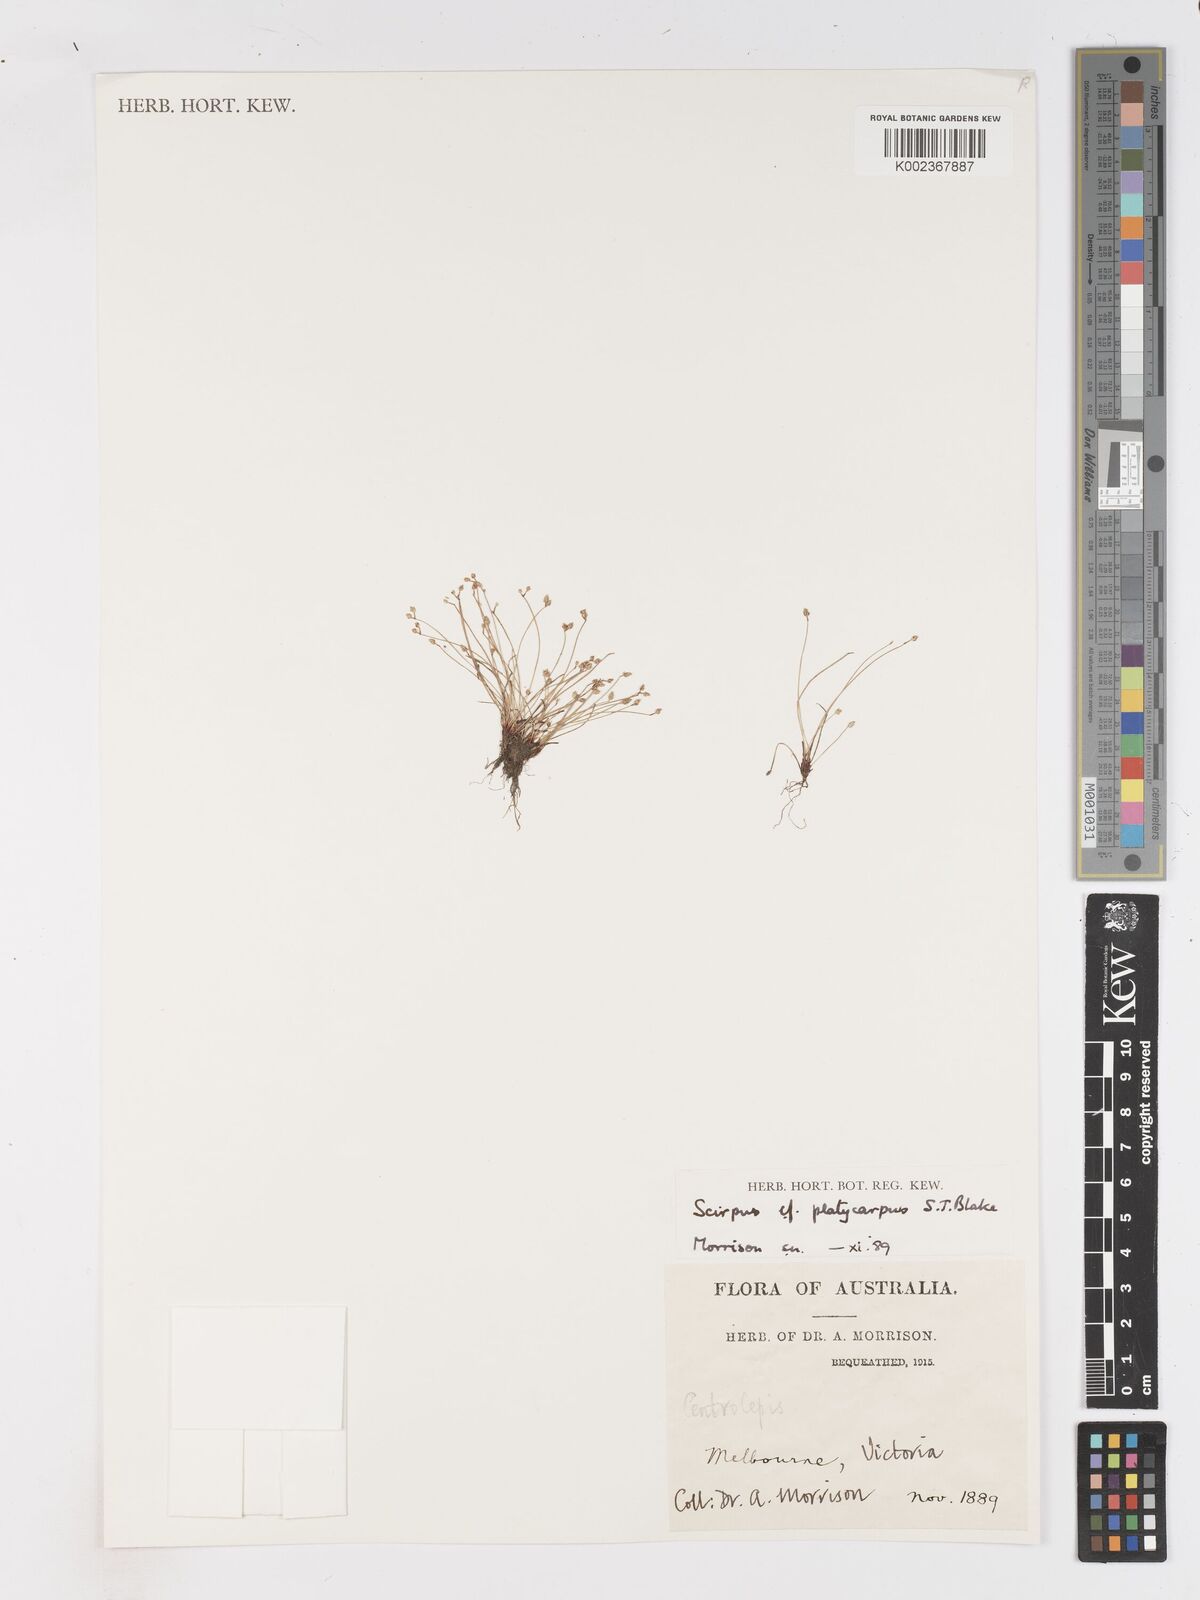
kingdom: Plantae
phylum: Tracheophyta
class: Liliopsida
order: Poales
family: Cyperaceae
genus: Isolepis
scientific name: Isolepis cernua
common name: Slender club-rush
